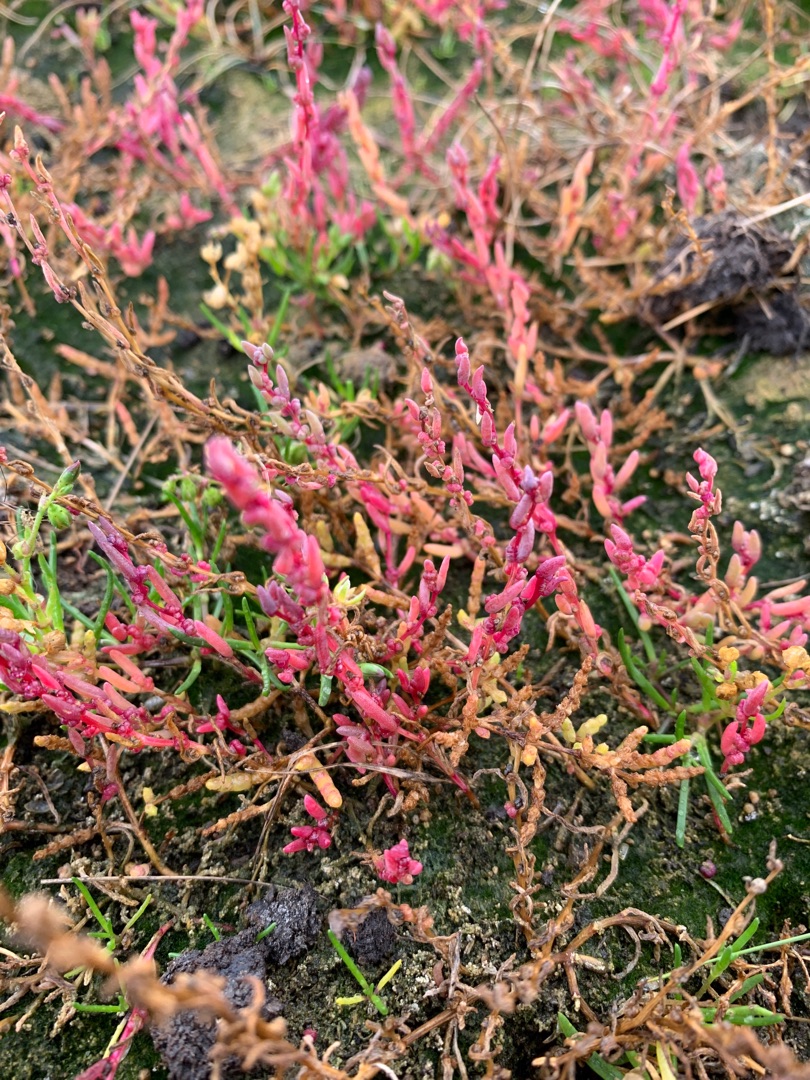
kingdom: Plantae
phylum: Tracheophyta
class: Magnoliopsida
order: Caryophyllales
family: Amaranthaceae
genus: Suaeda
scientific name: Suaeda maritima
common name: Strandgåsefod
